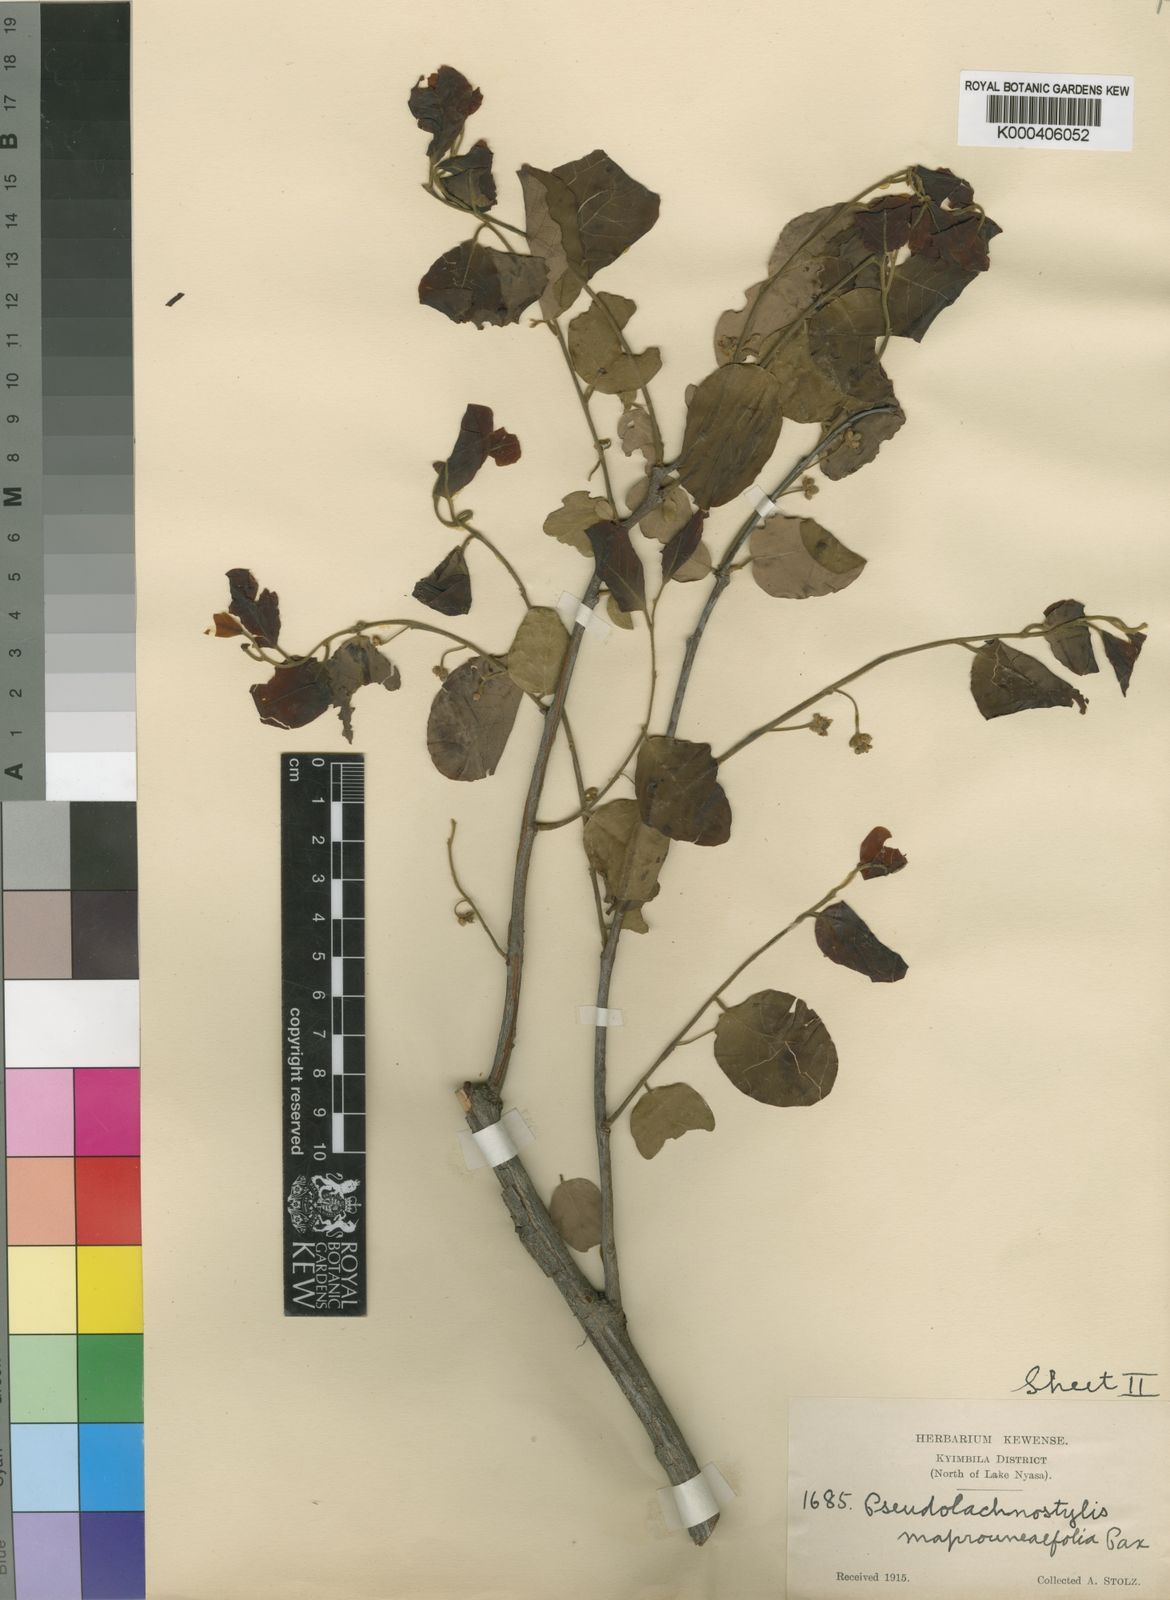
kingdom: Plantae
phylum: Tracheophyta
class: Magnoliopsida
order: Malpighiales
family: Phyllanthaceae
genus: Pseudolachnostylis
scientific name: Pseudolachnostylis maprouneifolia
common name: Kudu berry
